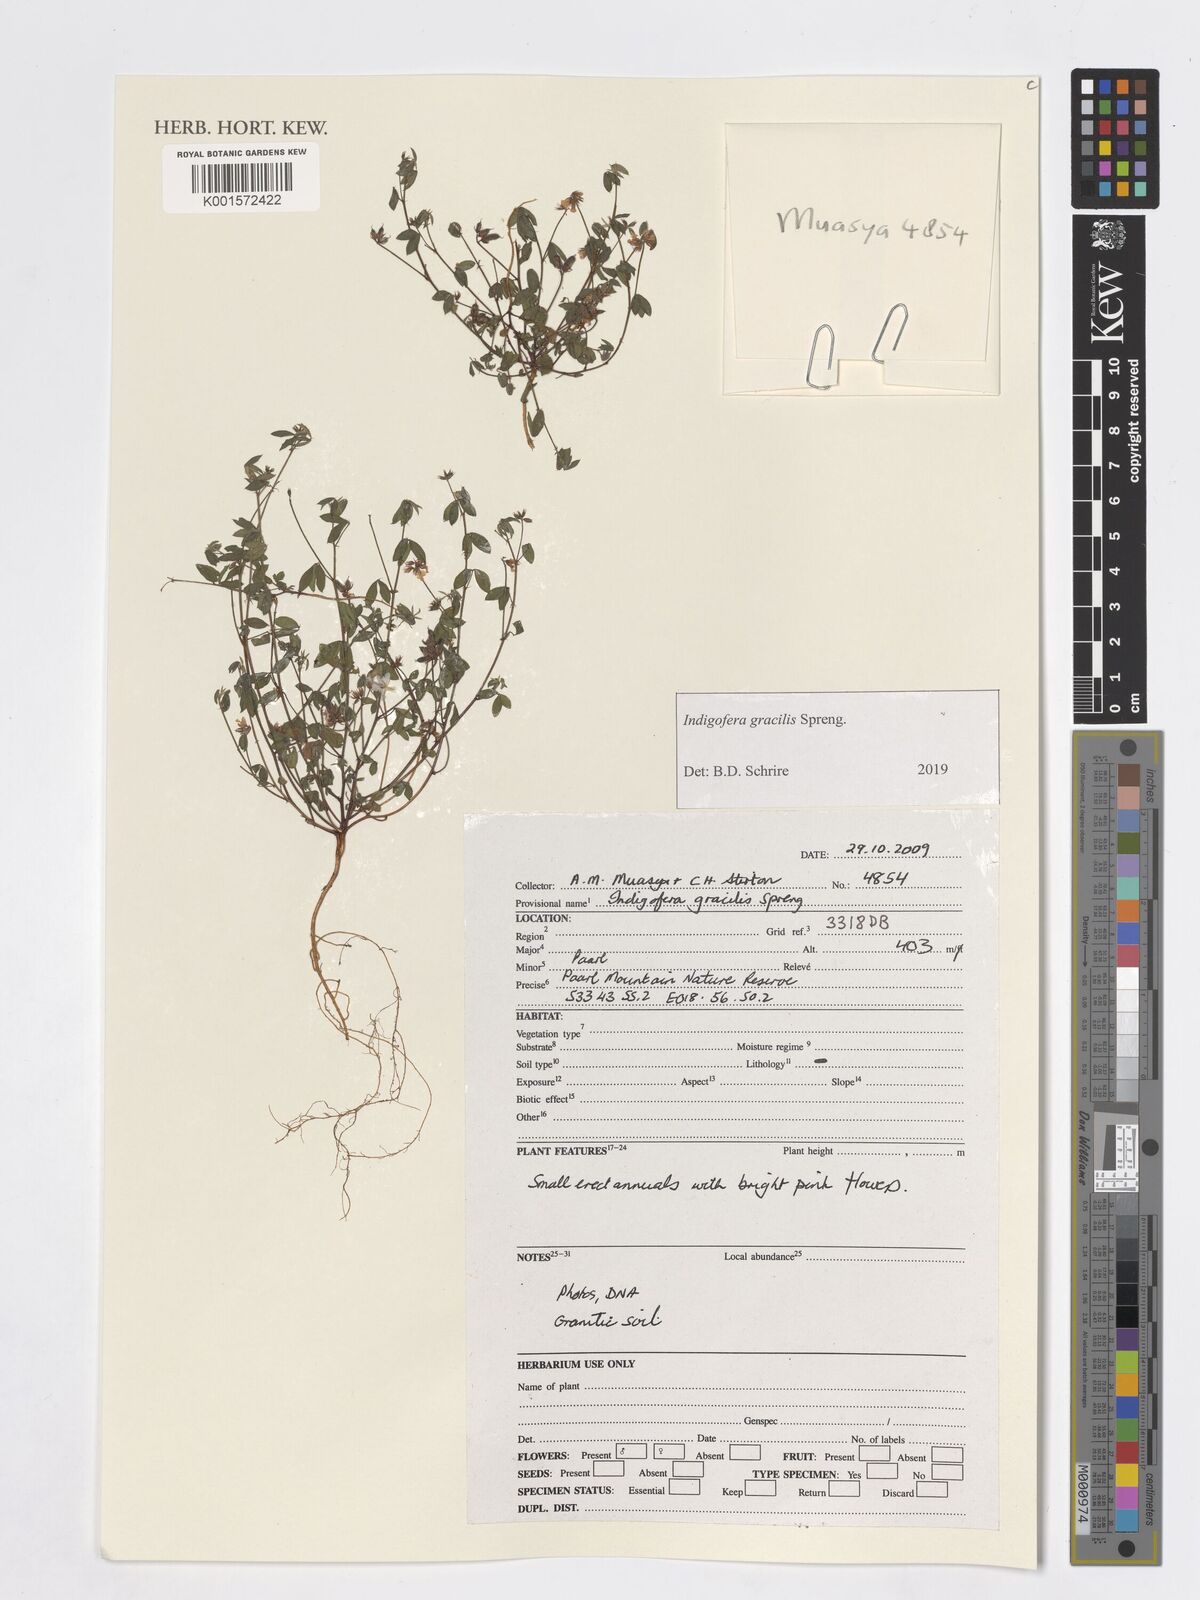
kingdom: Plantae
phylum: Tracheophyta
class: Magnoliopsida
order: Fabales
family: Fabaceae
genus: Indigofera
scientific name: Indigofera gracilis
